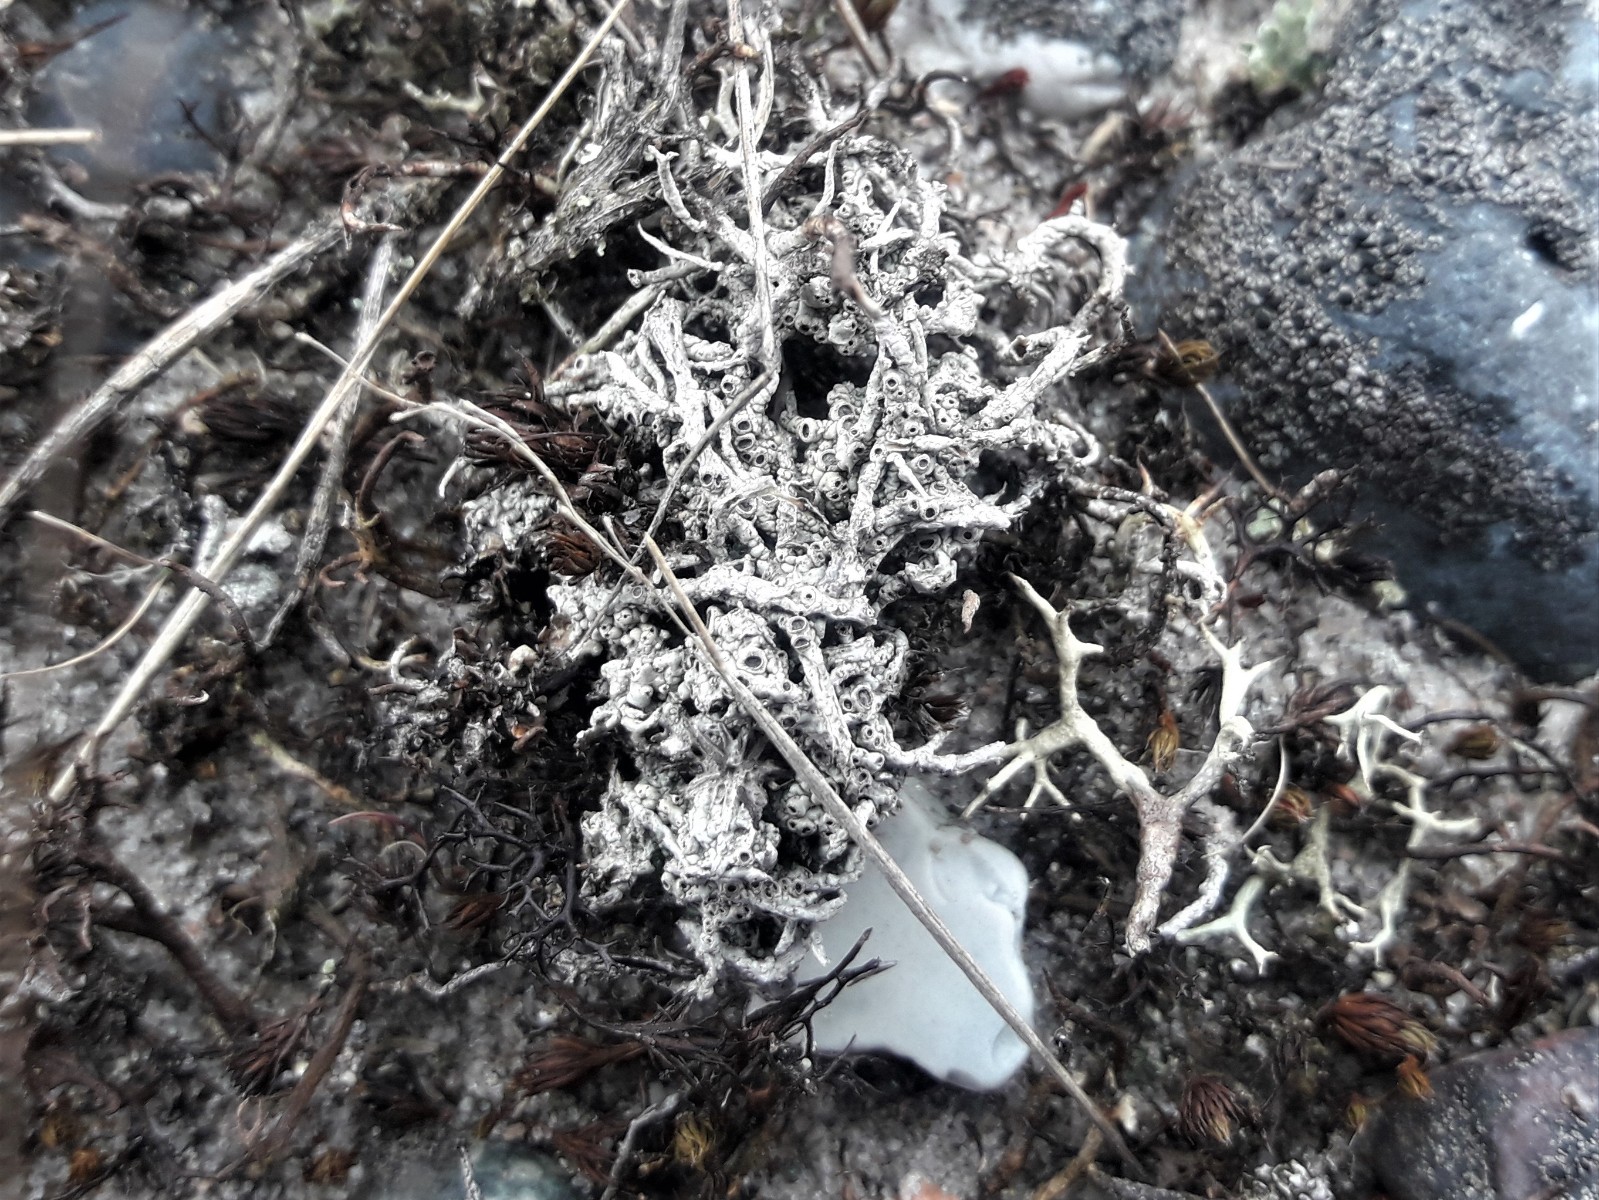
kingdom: Fungi
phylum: Ascomycota
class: Lecanoromycetes
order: Ostropales
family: Graphidaceae
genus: Diploschistes
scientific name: Diploschistes muscorum
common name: mos-kraterlav
